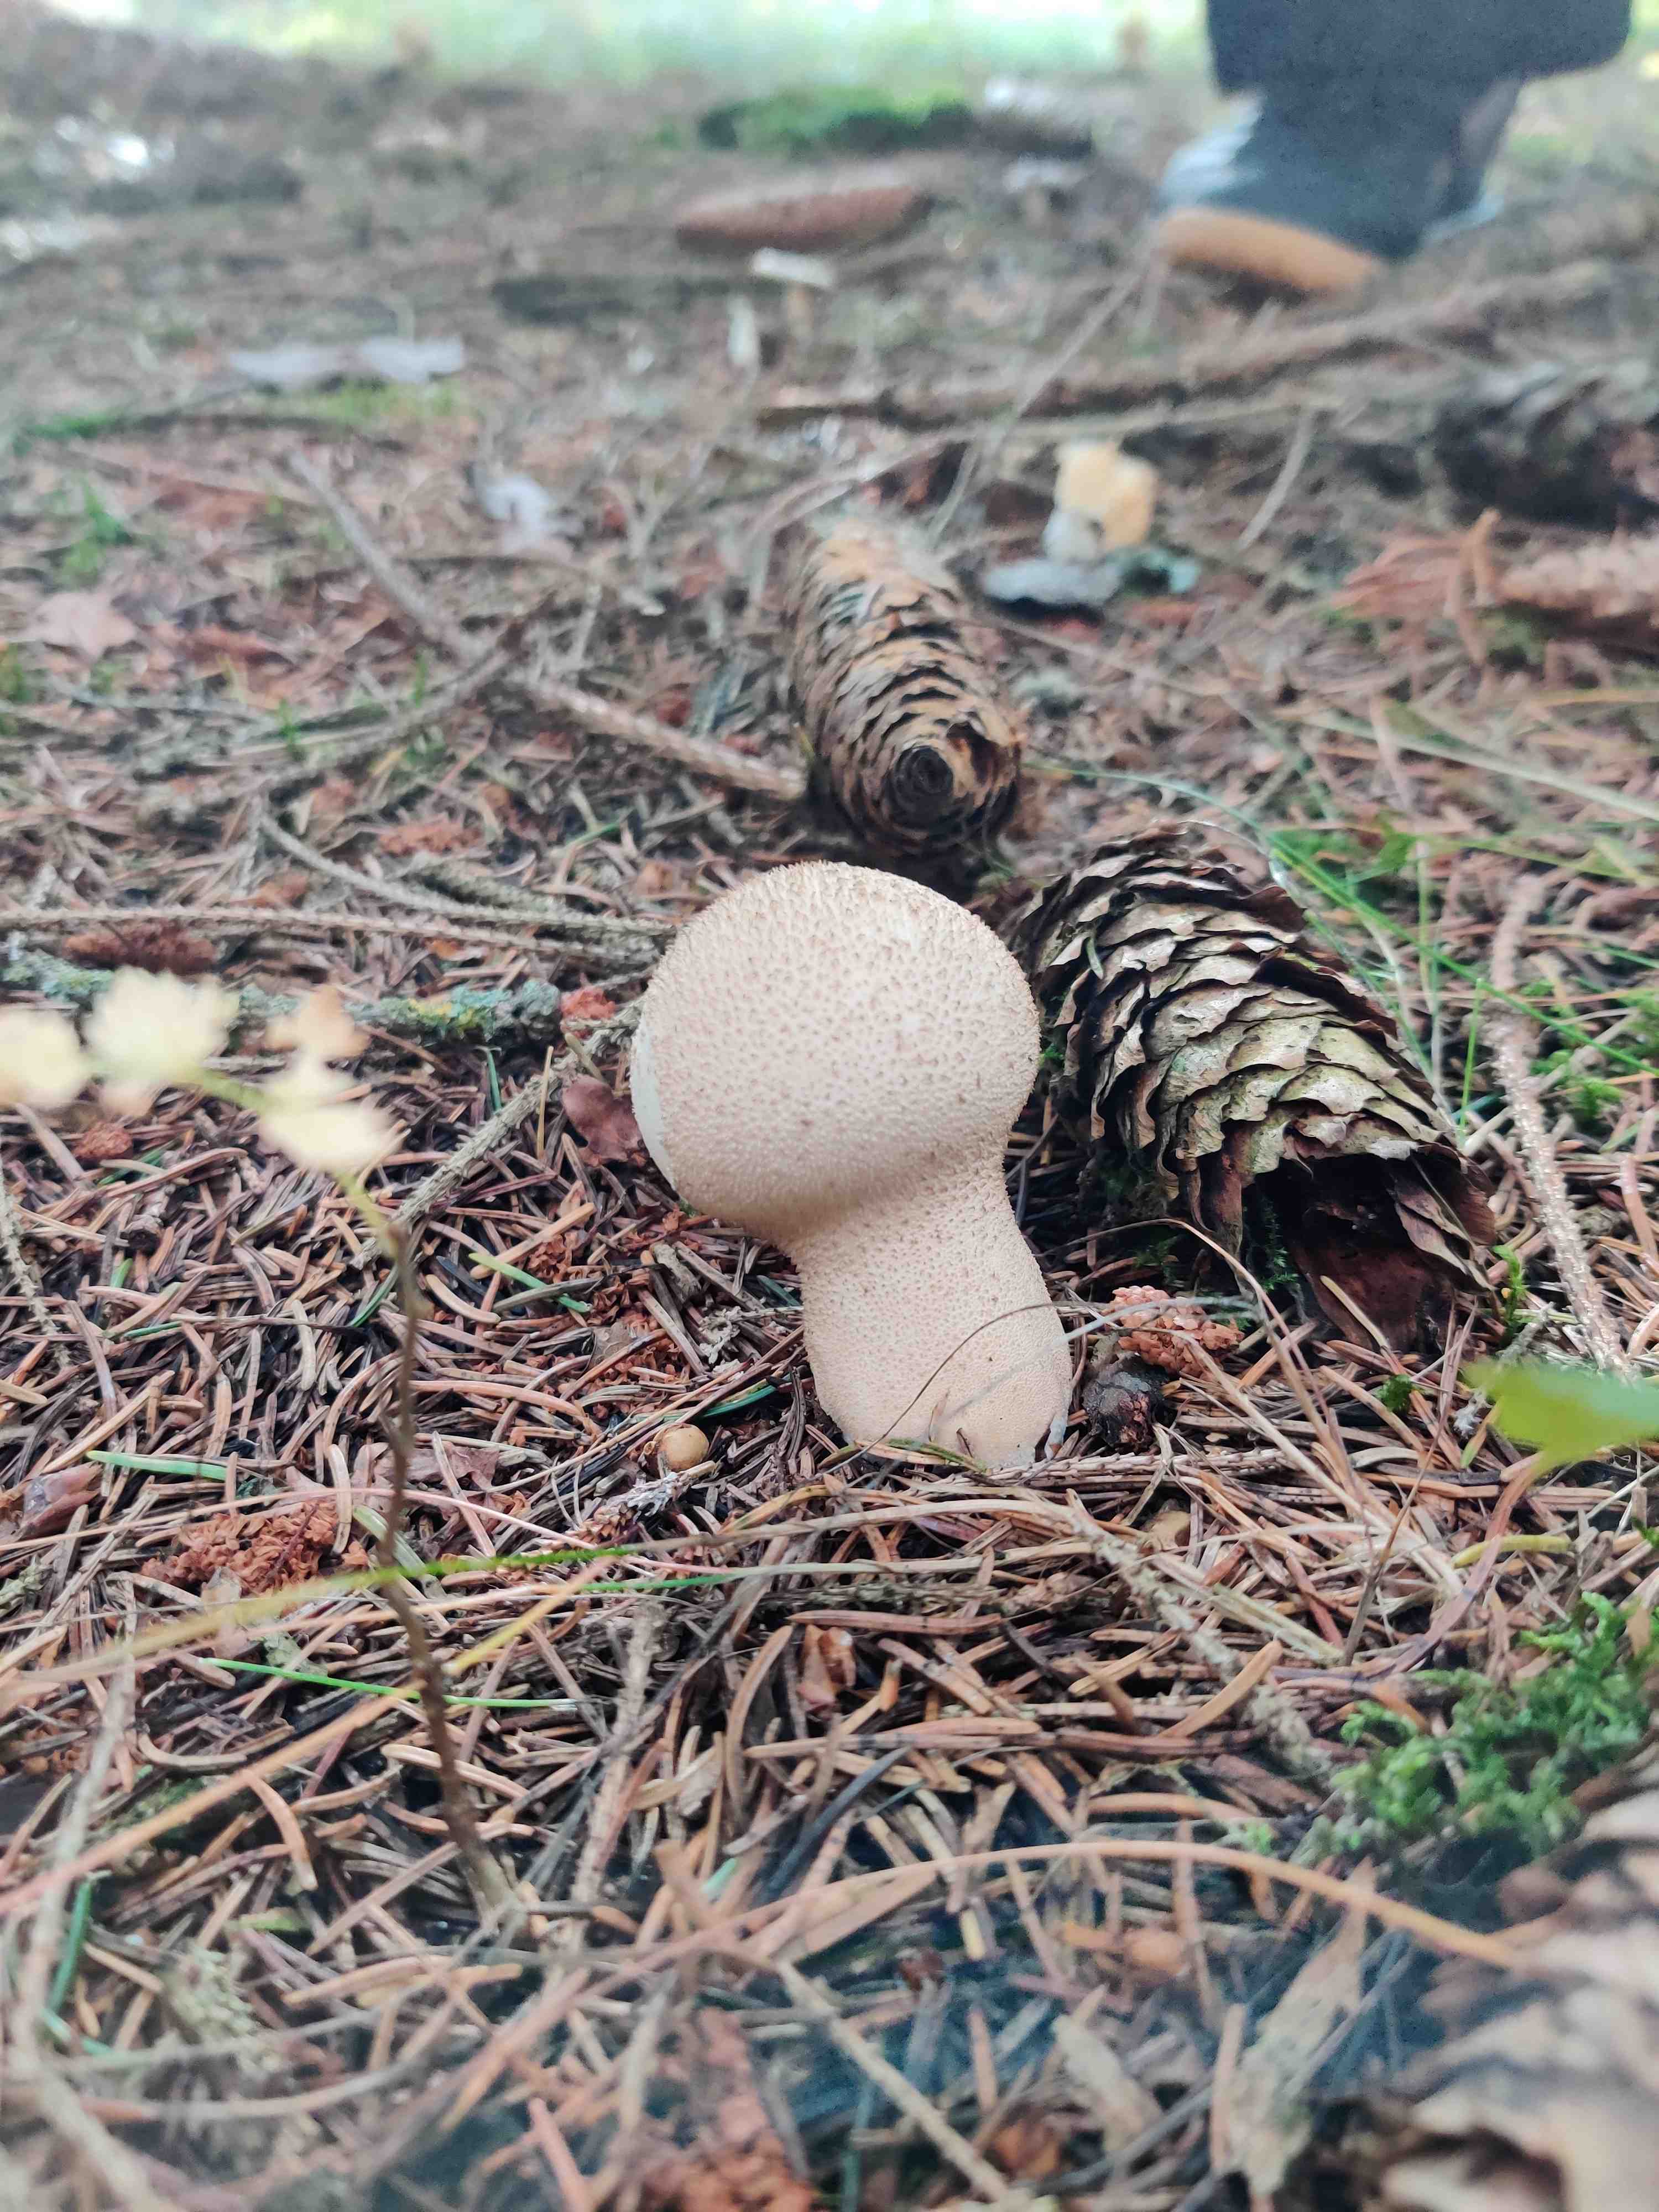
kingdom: Fungi
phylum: Basidiomycota
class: Agaricomycetes
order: Agaricales
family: Lycoperdaceae
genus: Lycoperdon
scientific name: Lycoperdon excipuliforme
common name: højstokket støvbold
